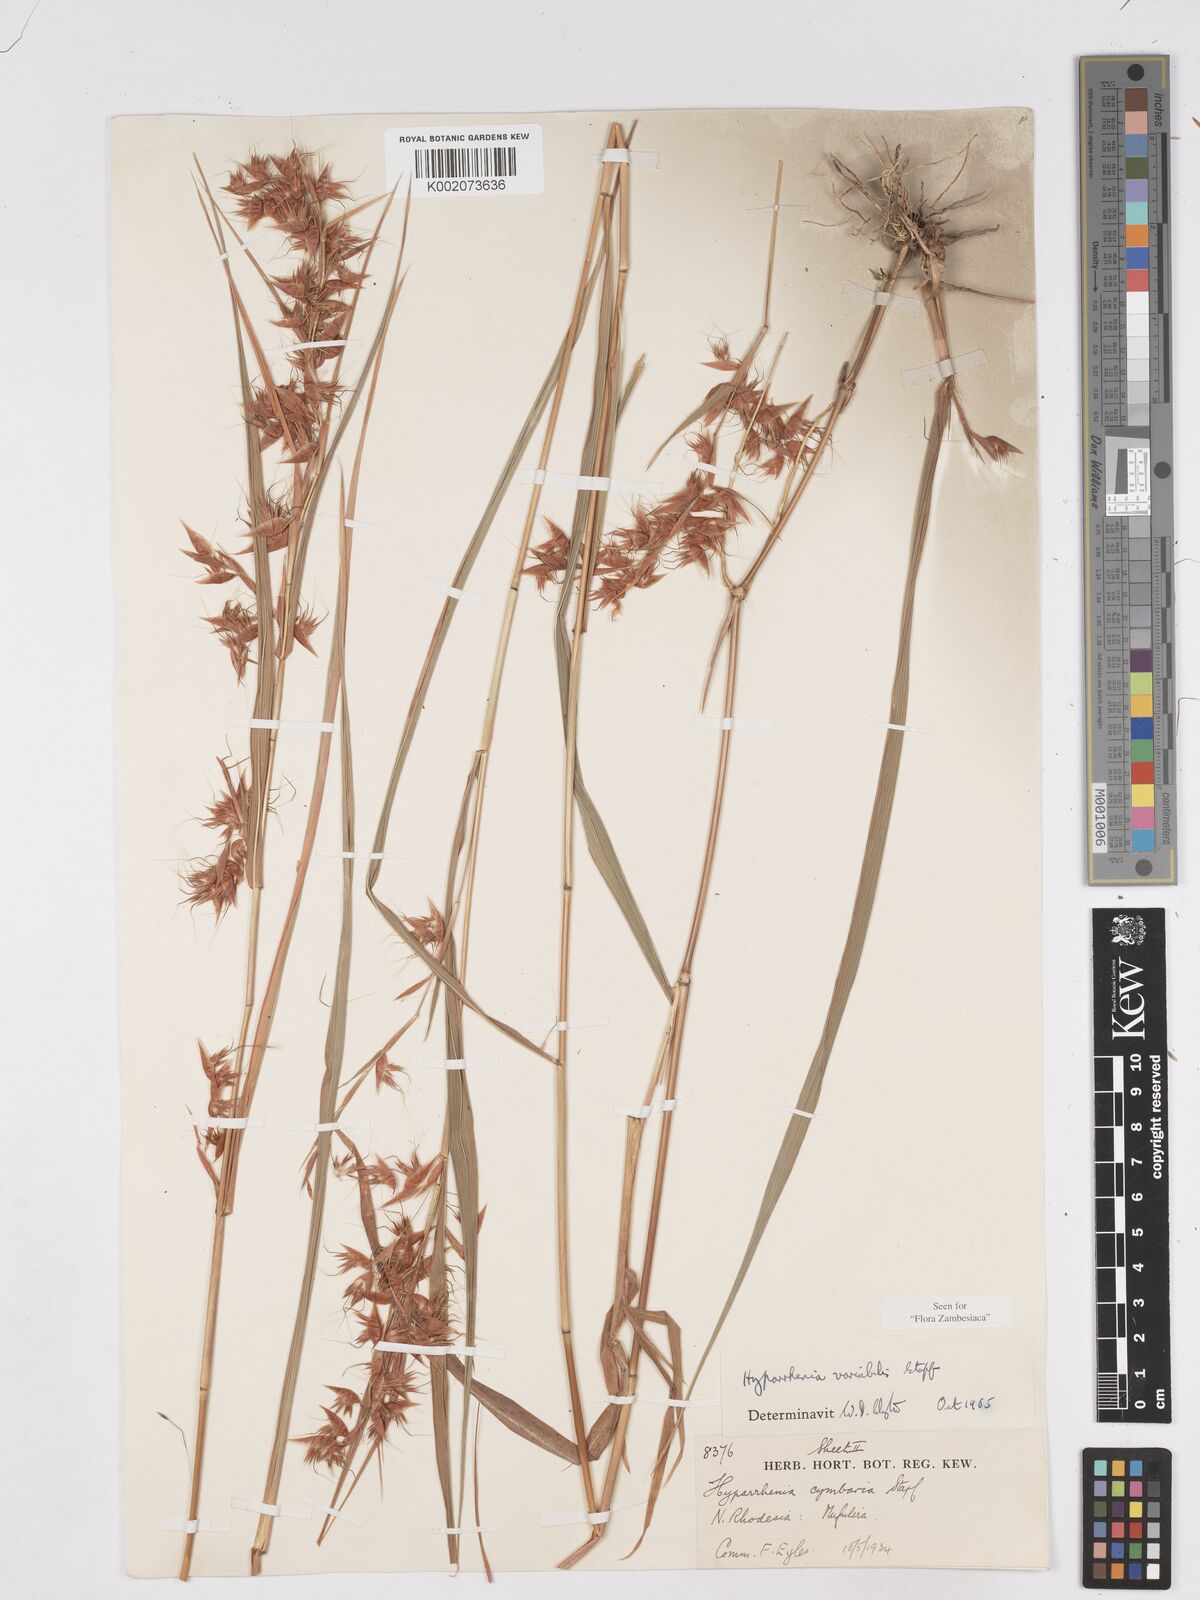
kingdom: Plantae
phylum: Tracheophyta
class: Liliopsida
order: Poales
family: Poaceae
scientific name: Poaceae
